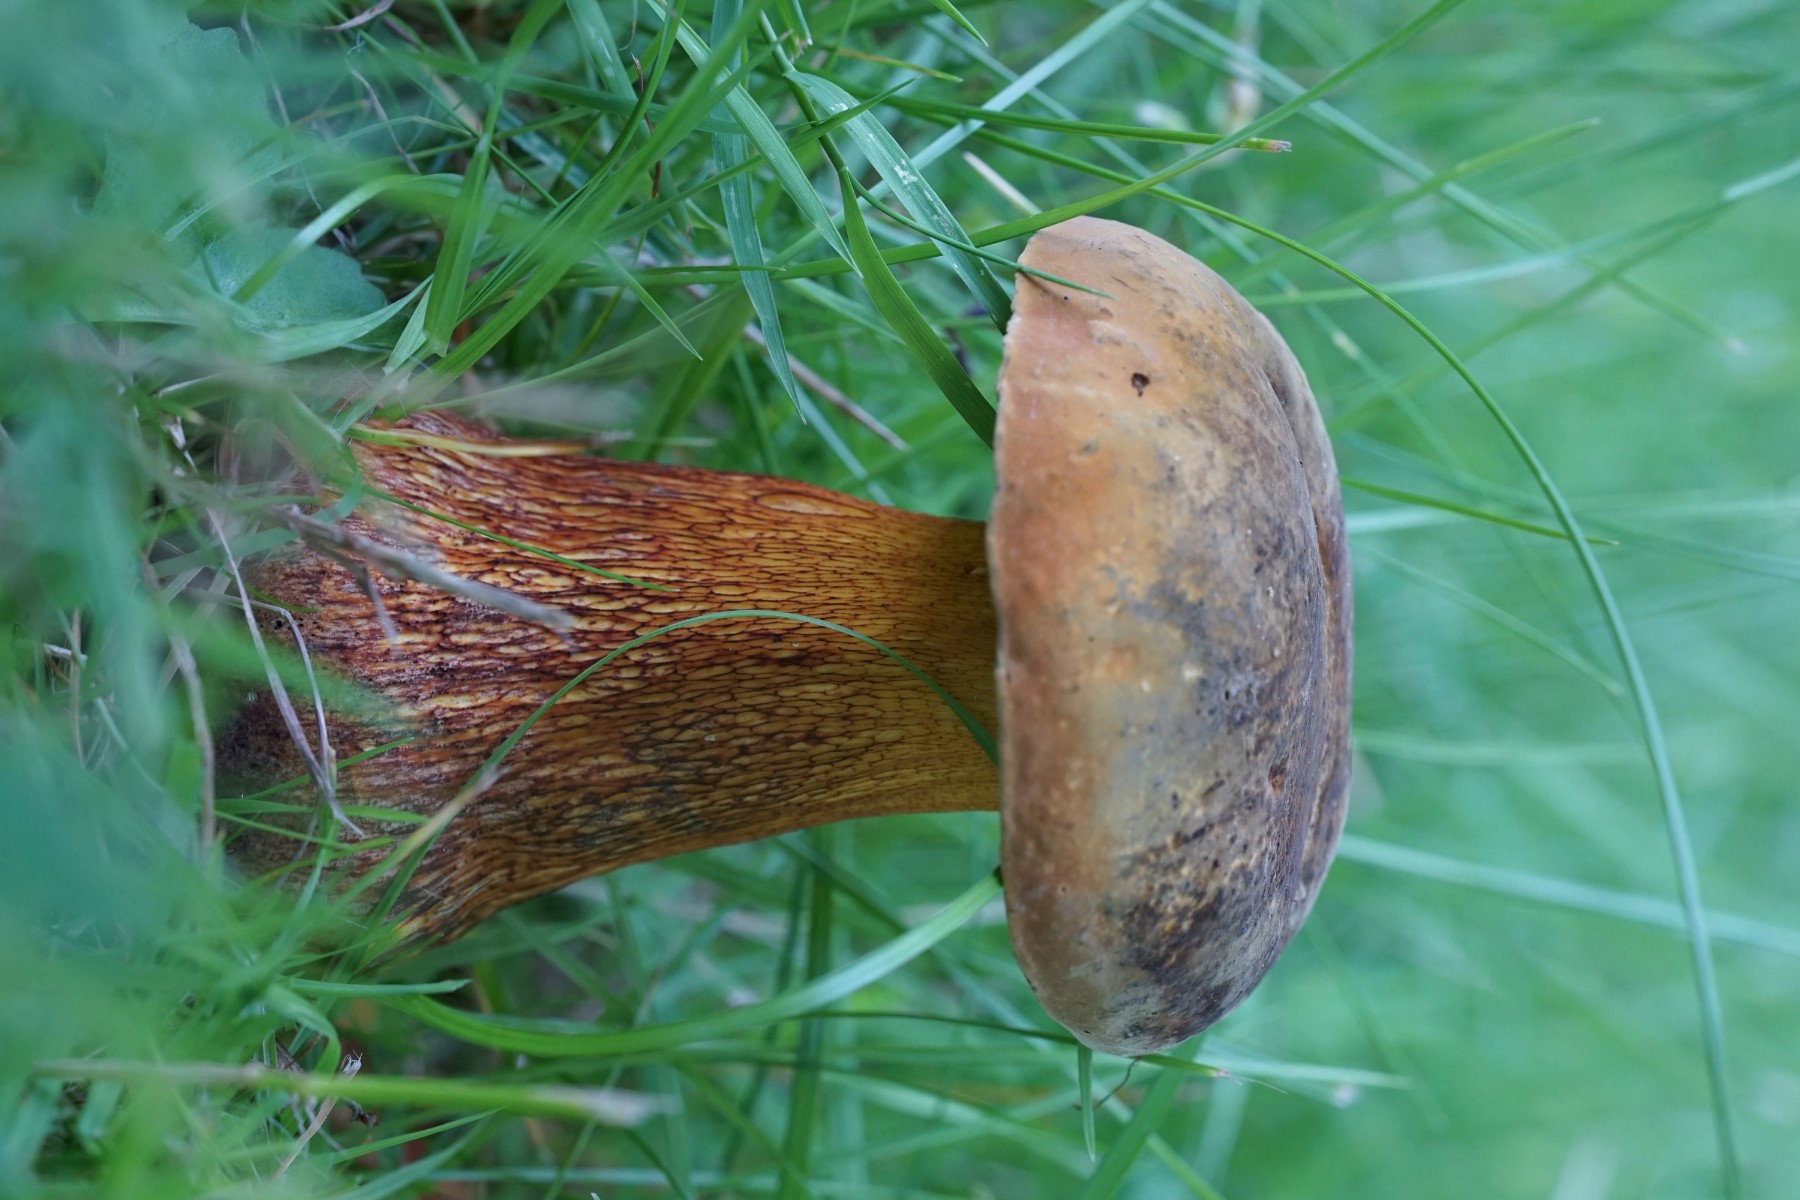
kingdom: Fungi
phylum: Basidiomycota
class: Agaricomycetes
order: Boletales
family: Boletaceae
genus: Suillellus
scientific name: Suillellus luridus
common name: netstokket indigorørhat
